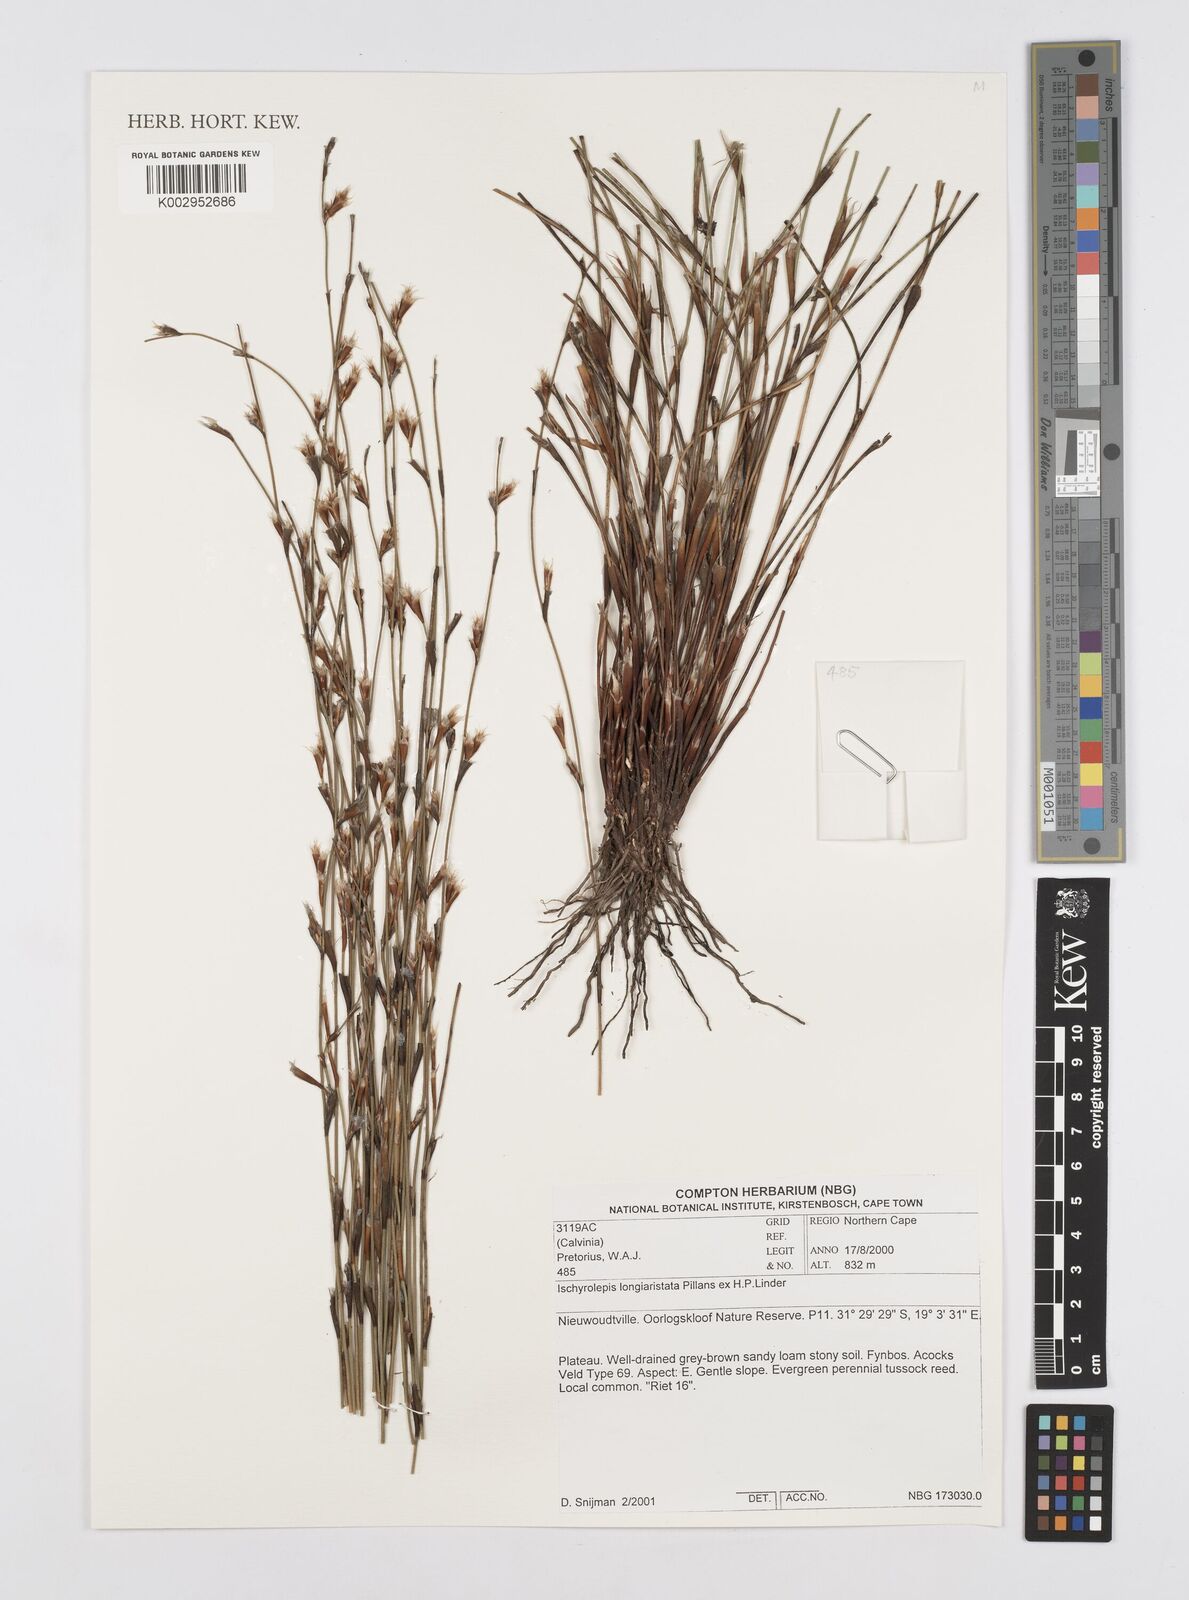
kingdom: Plantae
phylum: Tracheophyta
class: Liliopsida
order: Poales
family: Restionaceae
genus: Restio
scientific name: Restio longiaristatus
